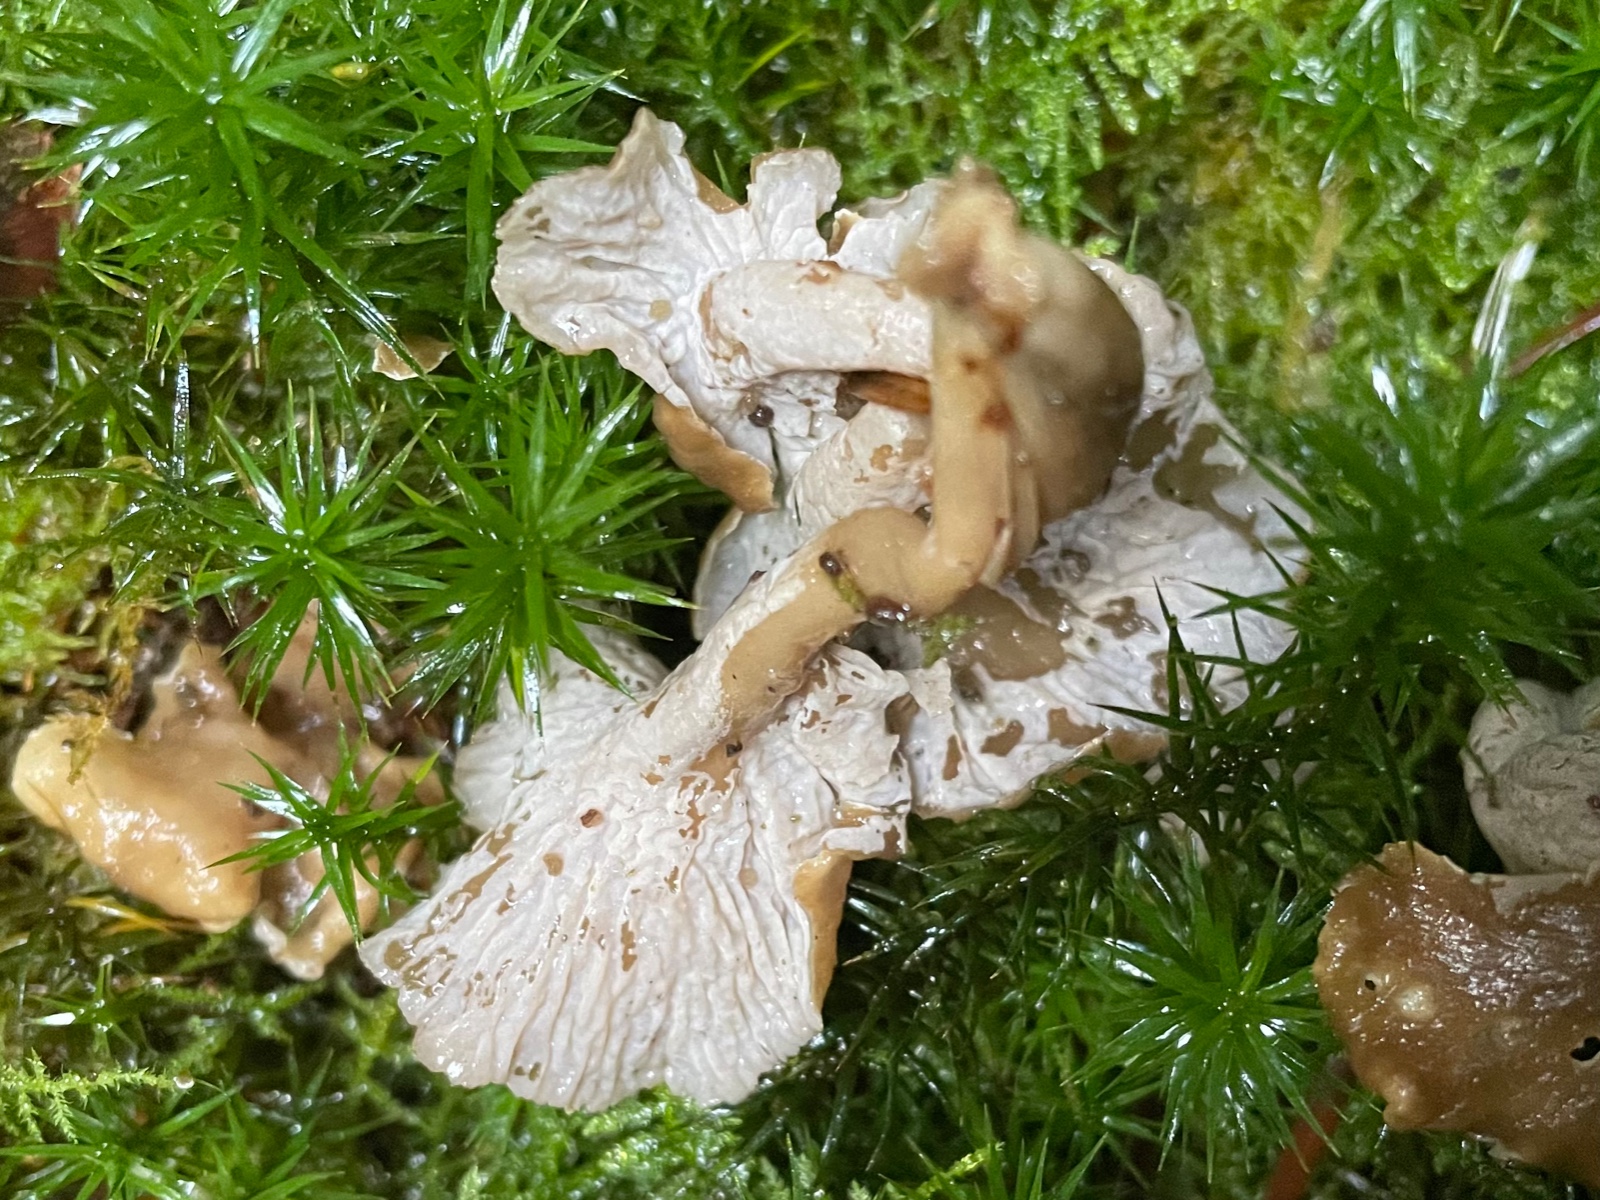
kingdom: Fungi
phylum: Basidiomycota
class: Agaricomycetes
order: Cantharellales
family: Hydnaceae
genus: Craterellus
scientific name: Craterellus undulatus
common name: liden kantarel
